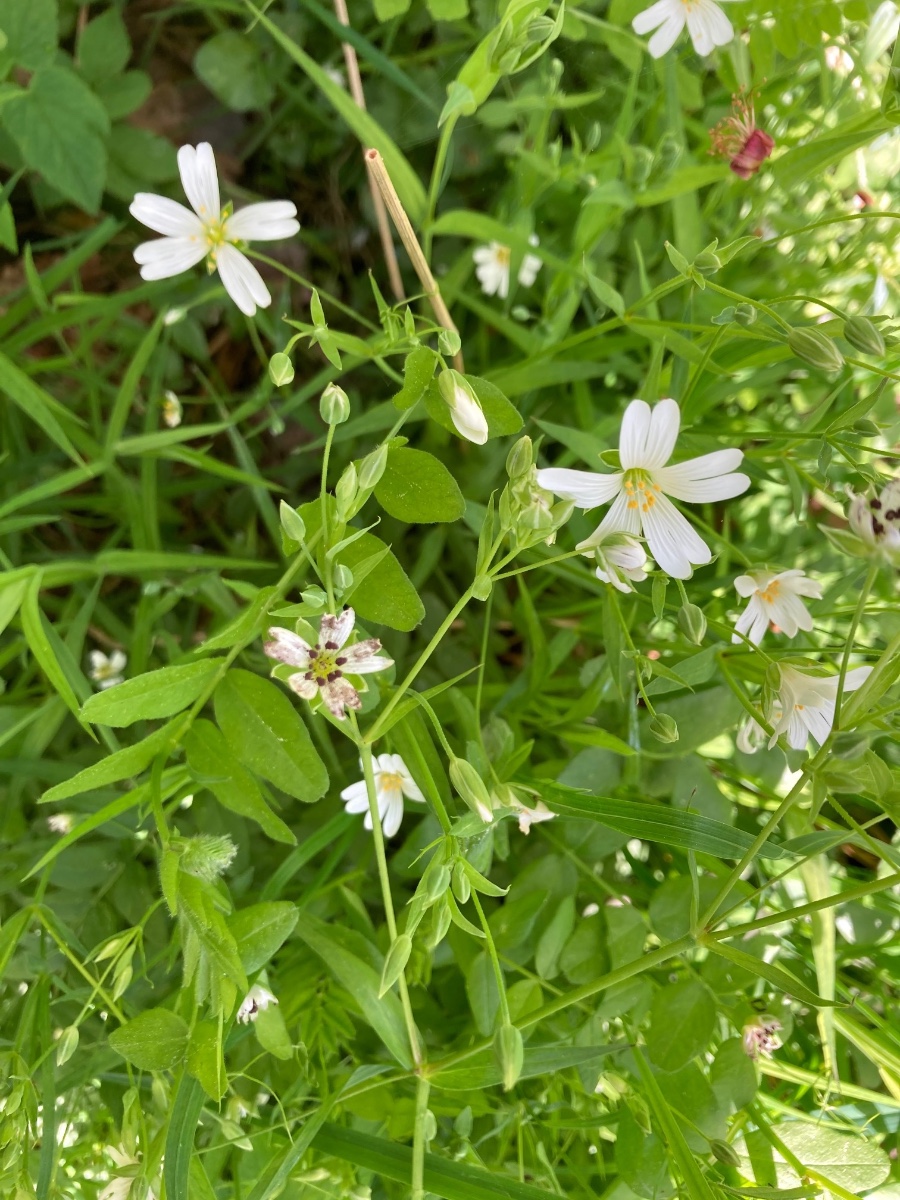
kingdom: Fungi
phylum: Basidiomycota
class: Microbotryomycetes
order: Microbotryales
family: Microbotryaceae
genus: Microbotryum
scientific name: Microbotryum stellariae
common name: fladstjerne-støvbladrust
